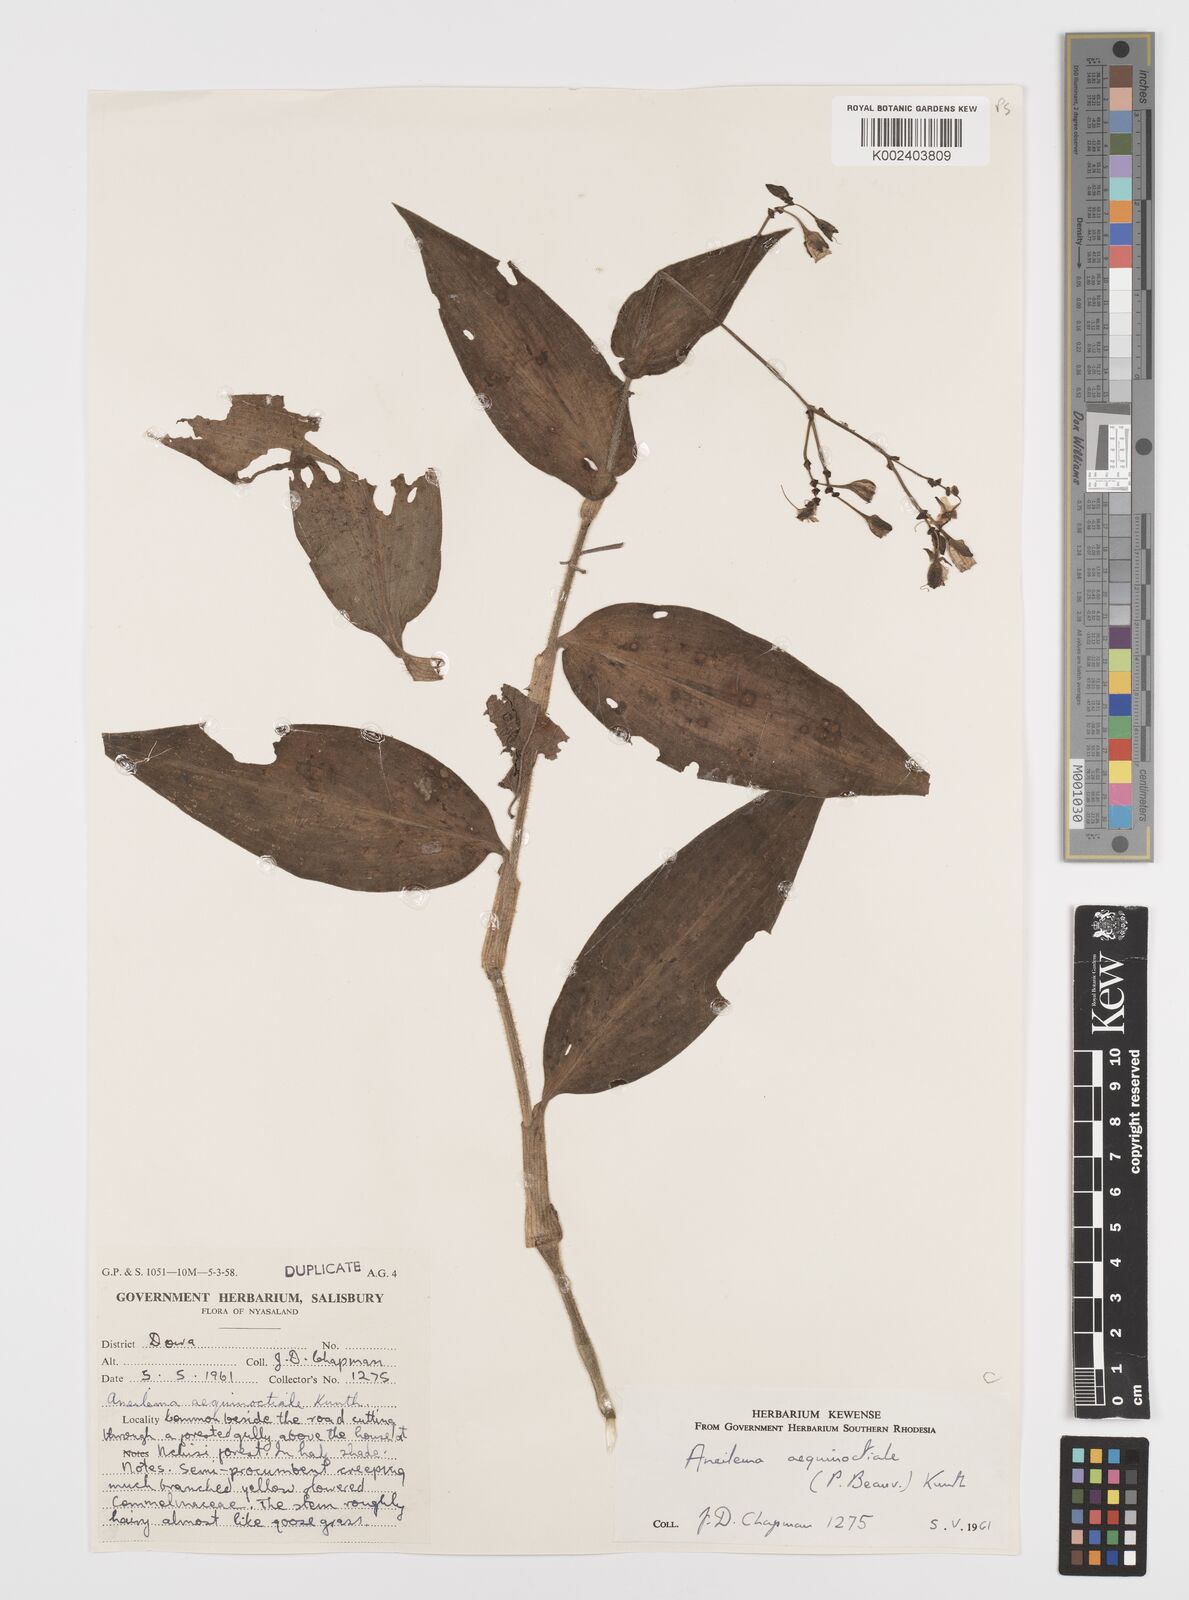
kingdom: Plantae
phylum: Tracheophyta
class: Liliopsida
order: Commelinales
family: Commelinaceae
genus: Aneilema
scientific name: Aneilema aequinoctiale
